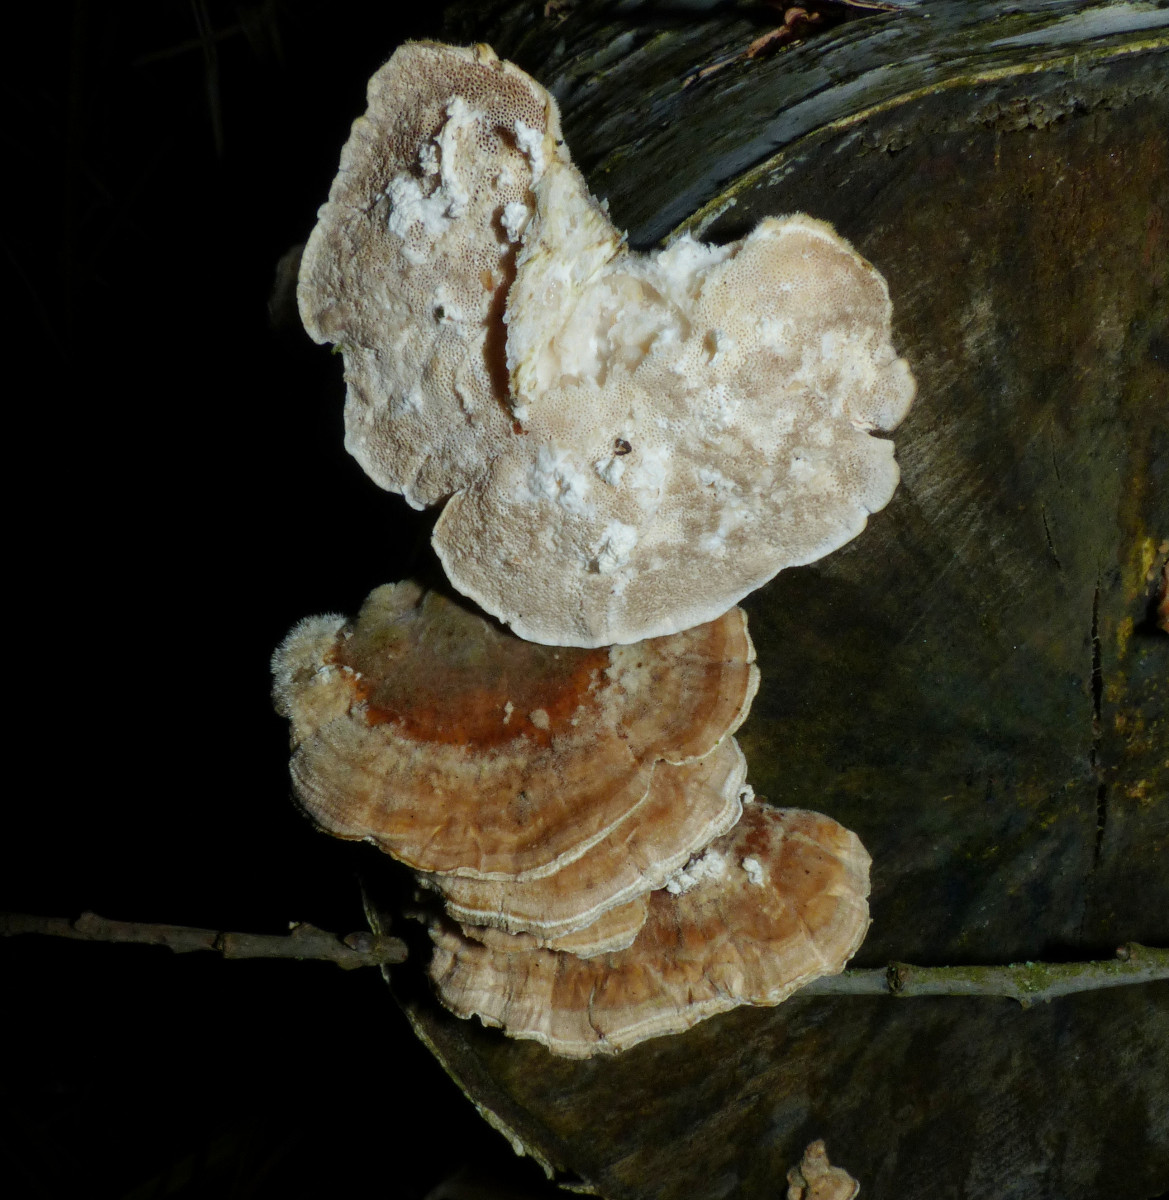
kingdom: Fungi
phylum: Basidiomycota
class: Agaricomycetes
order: Polyporales
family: Polyporaceae
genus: Trametes
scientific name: Trametes ochracea
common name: bæltet læderporesvamp
